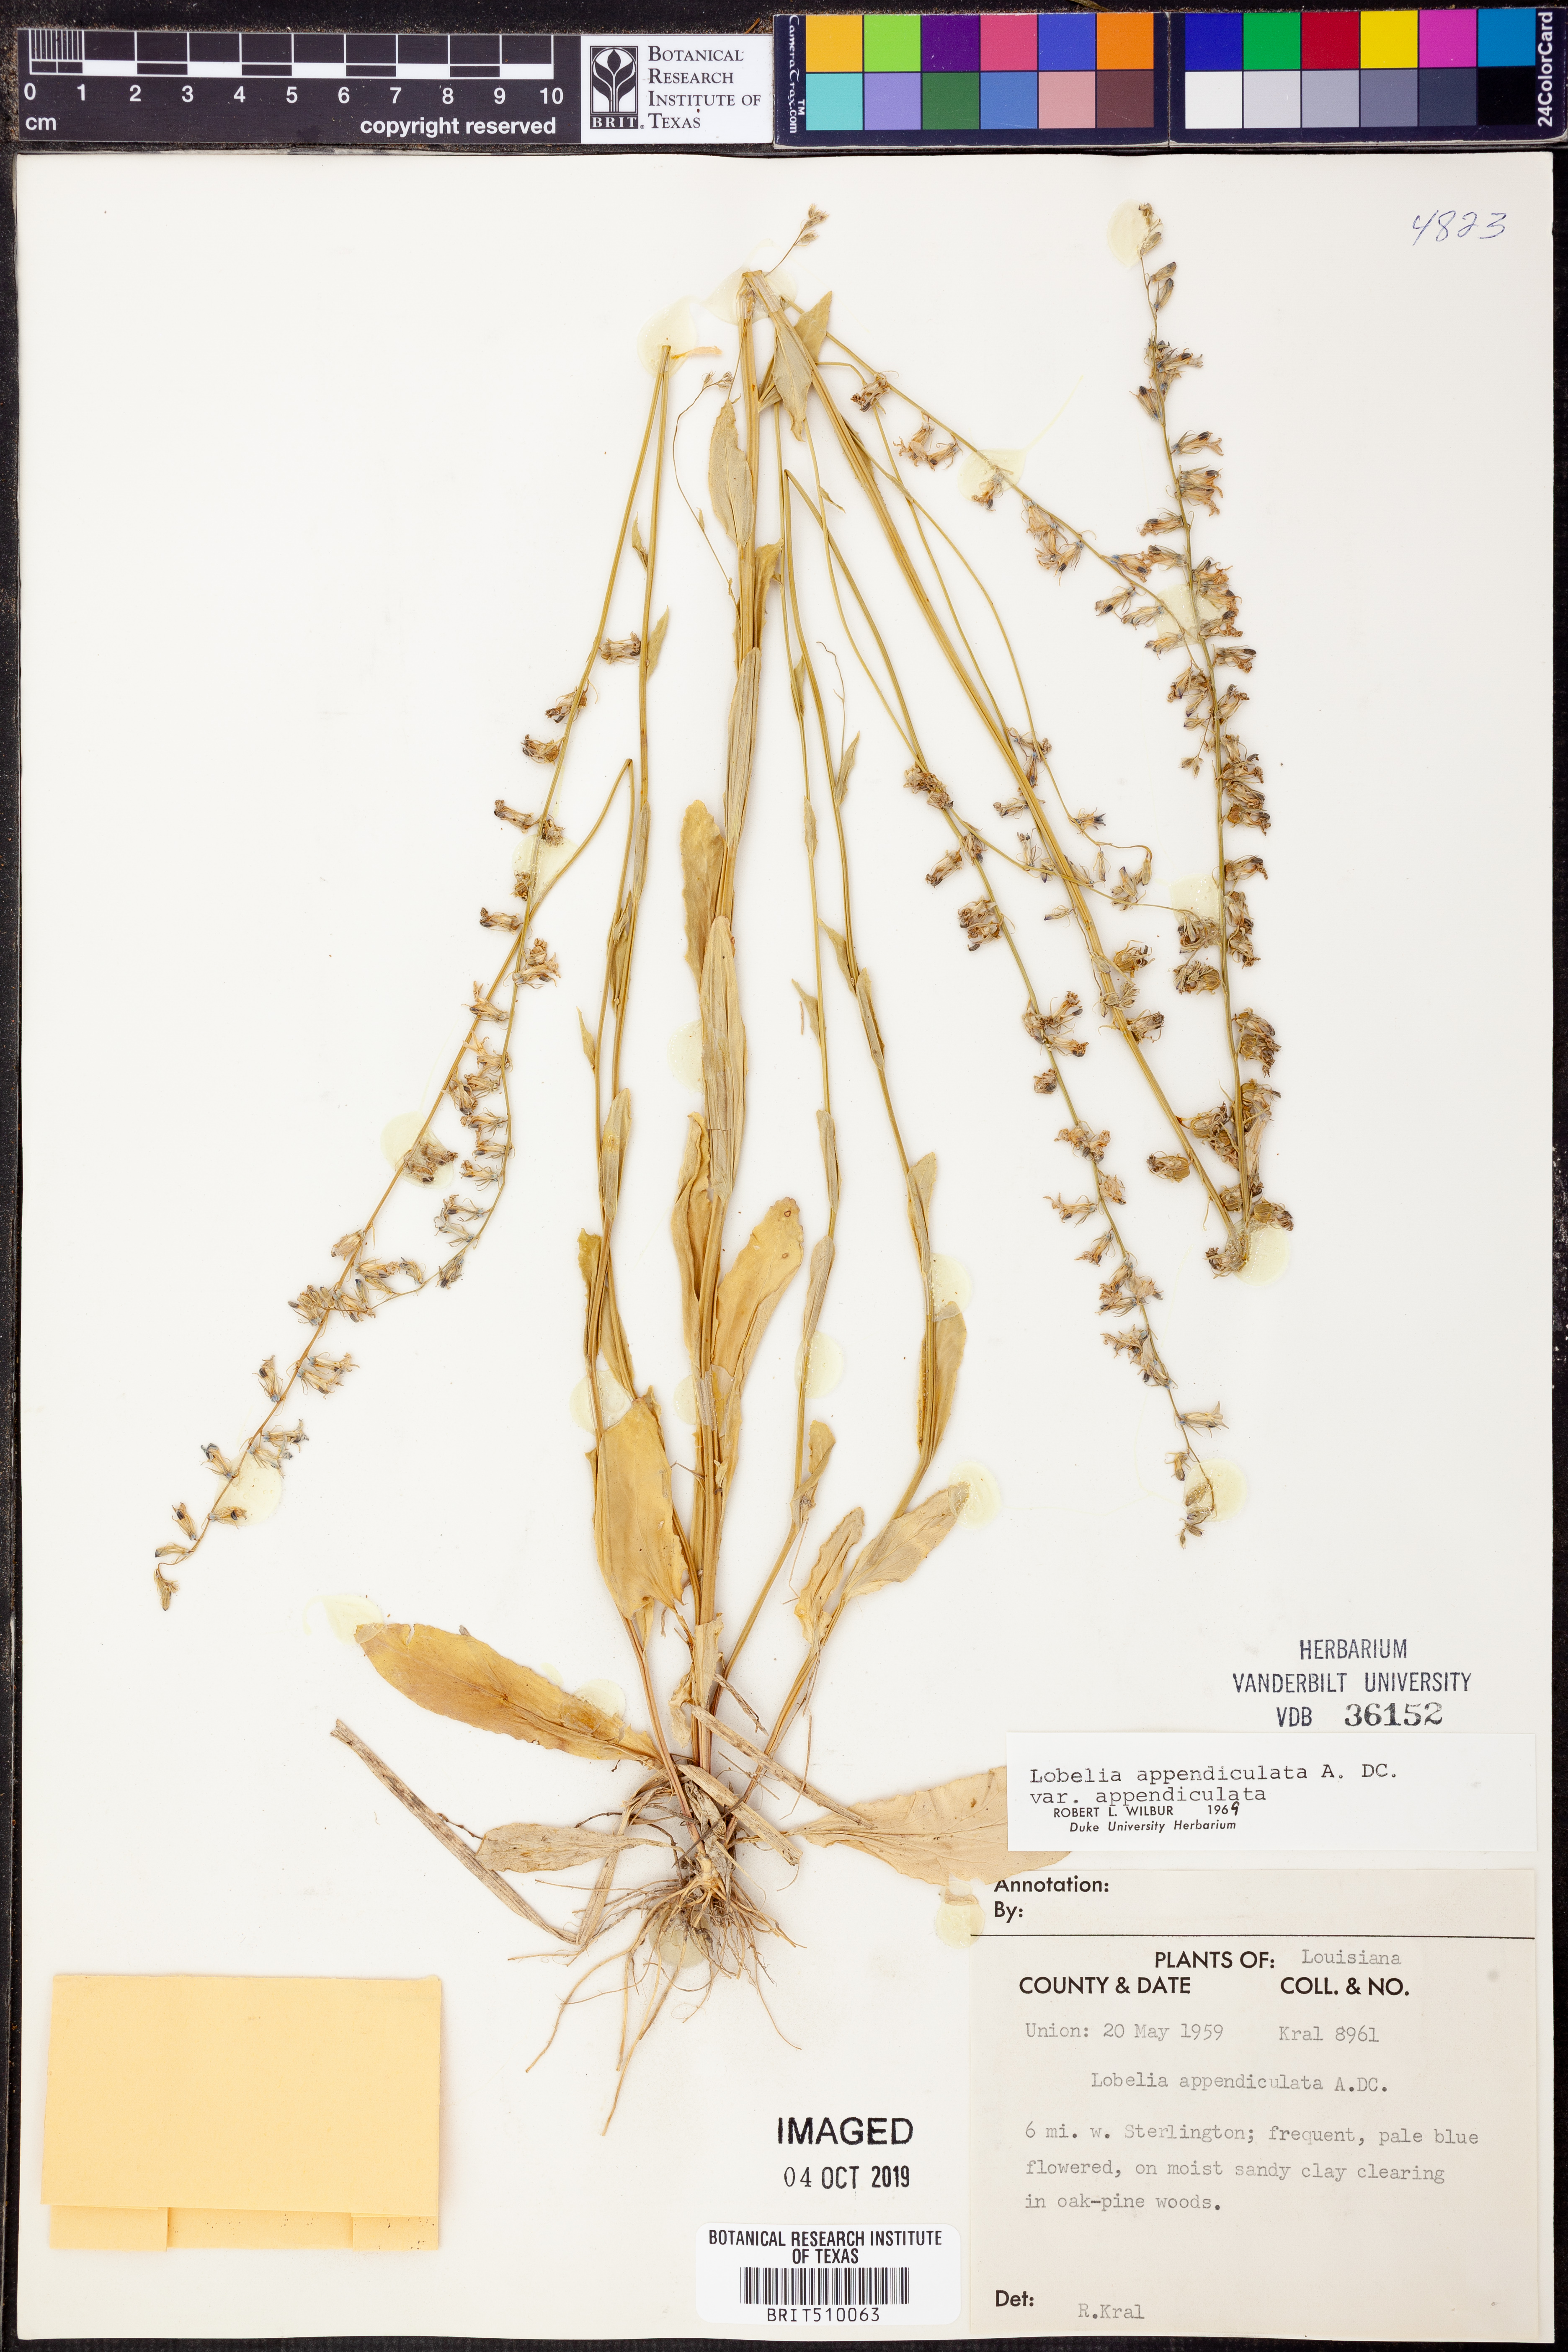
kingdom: Plantae
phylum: Tracheophyta
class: Magnoliopsida
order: Asterales
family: Campanulaceae
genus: Lobelia
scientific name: Lobelia appendiculata
